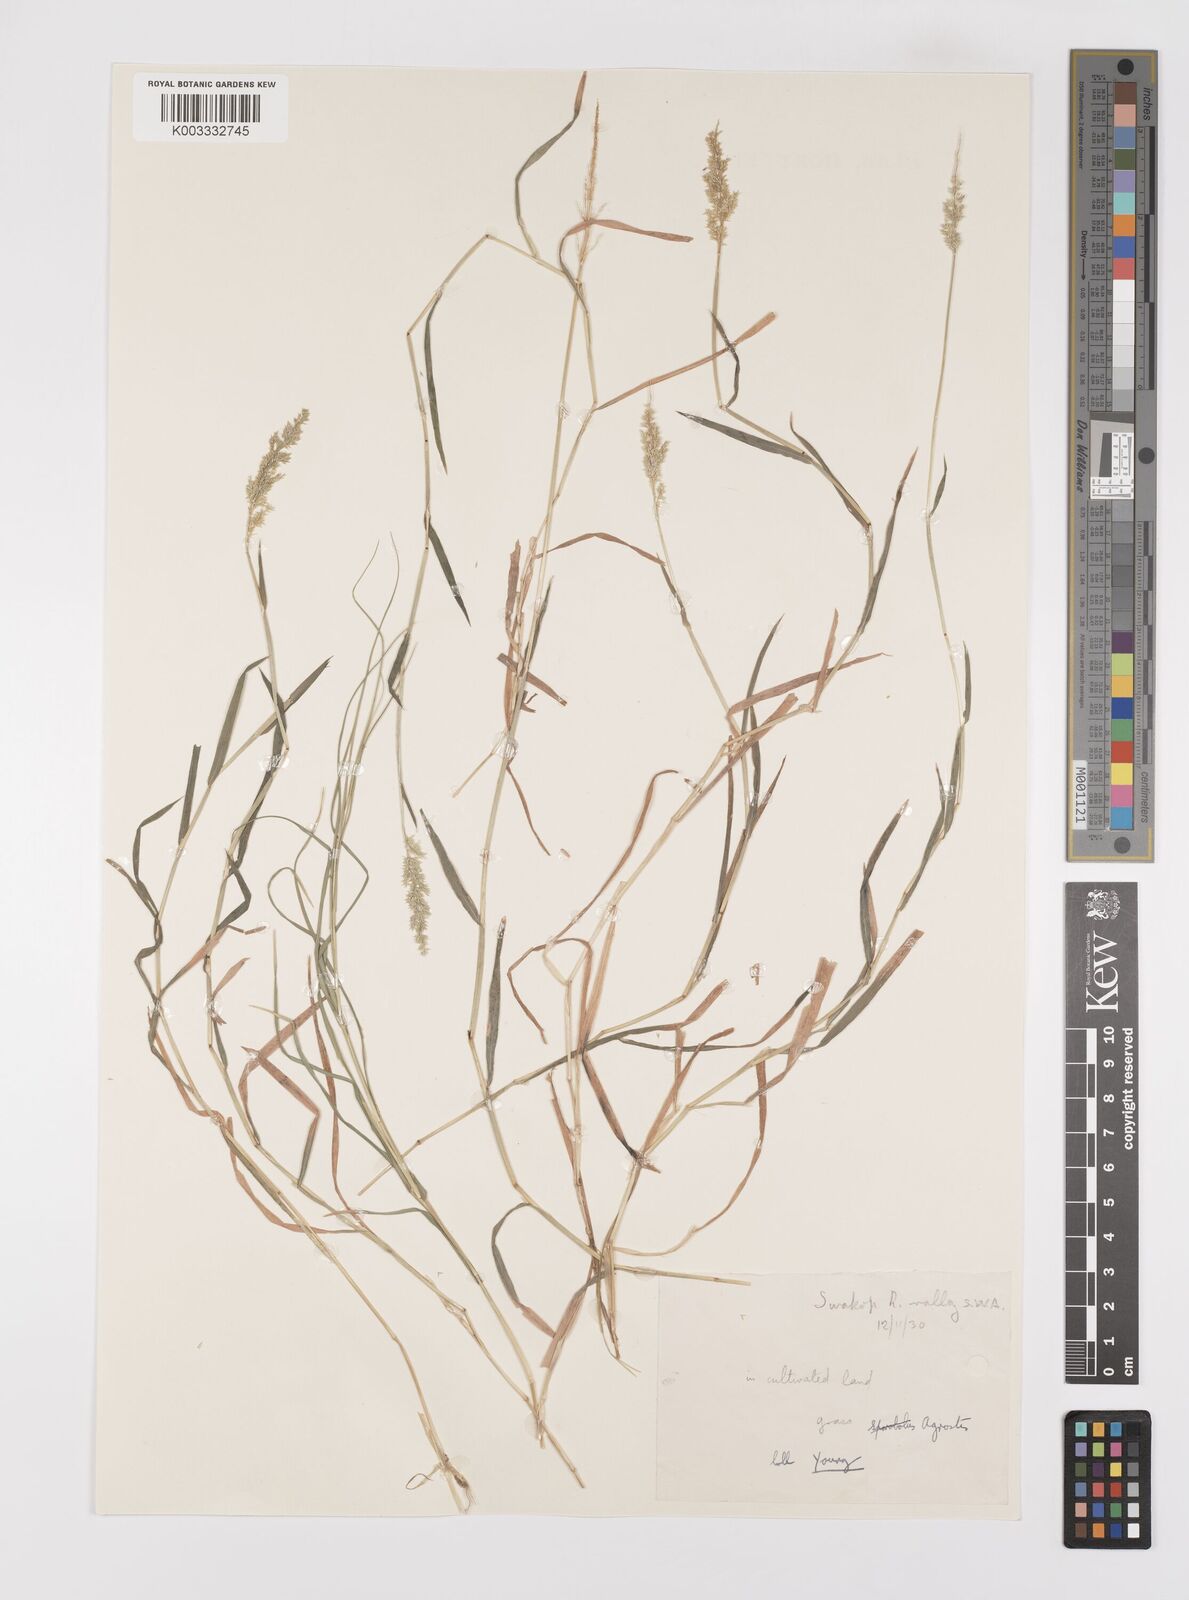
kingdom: Plantae
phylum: Tracheophyta
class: Liliopsida
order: Poales
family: Poaceae
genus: Polypogon
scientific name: Polypogon viridis
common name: Water bent
